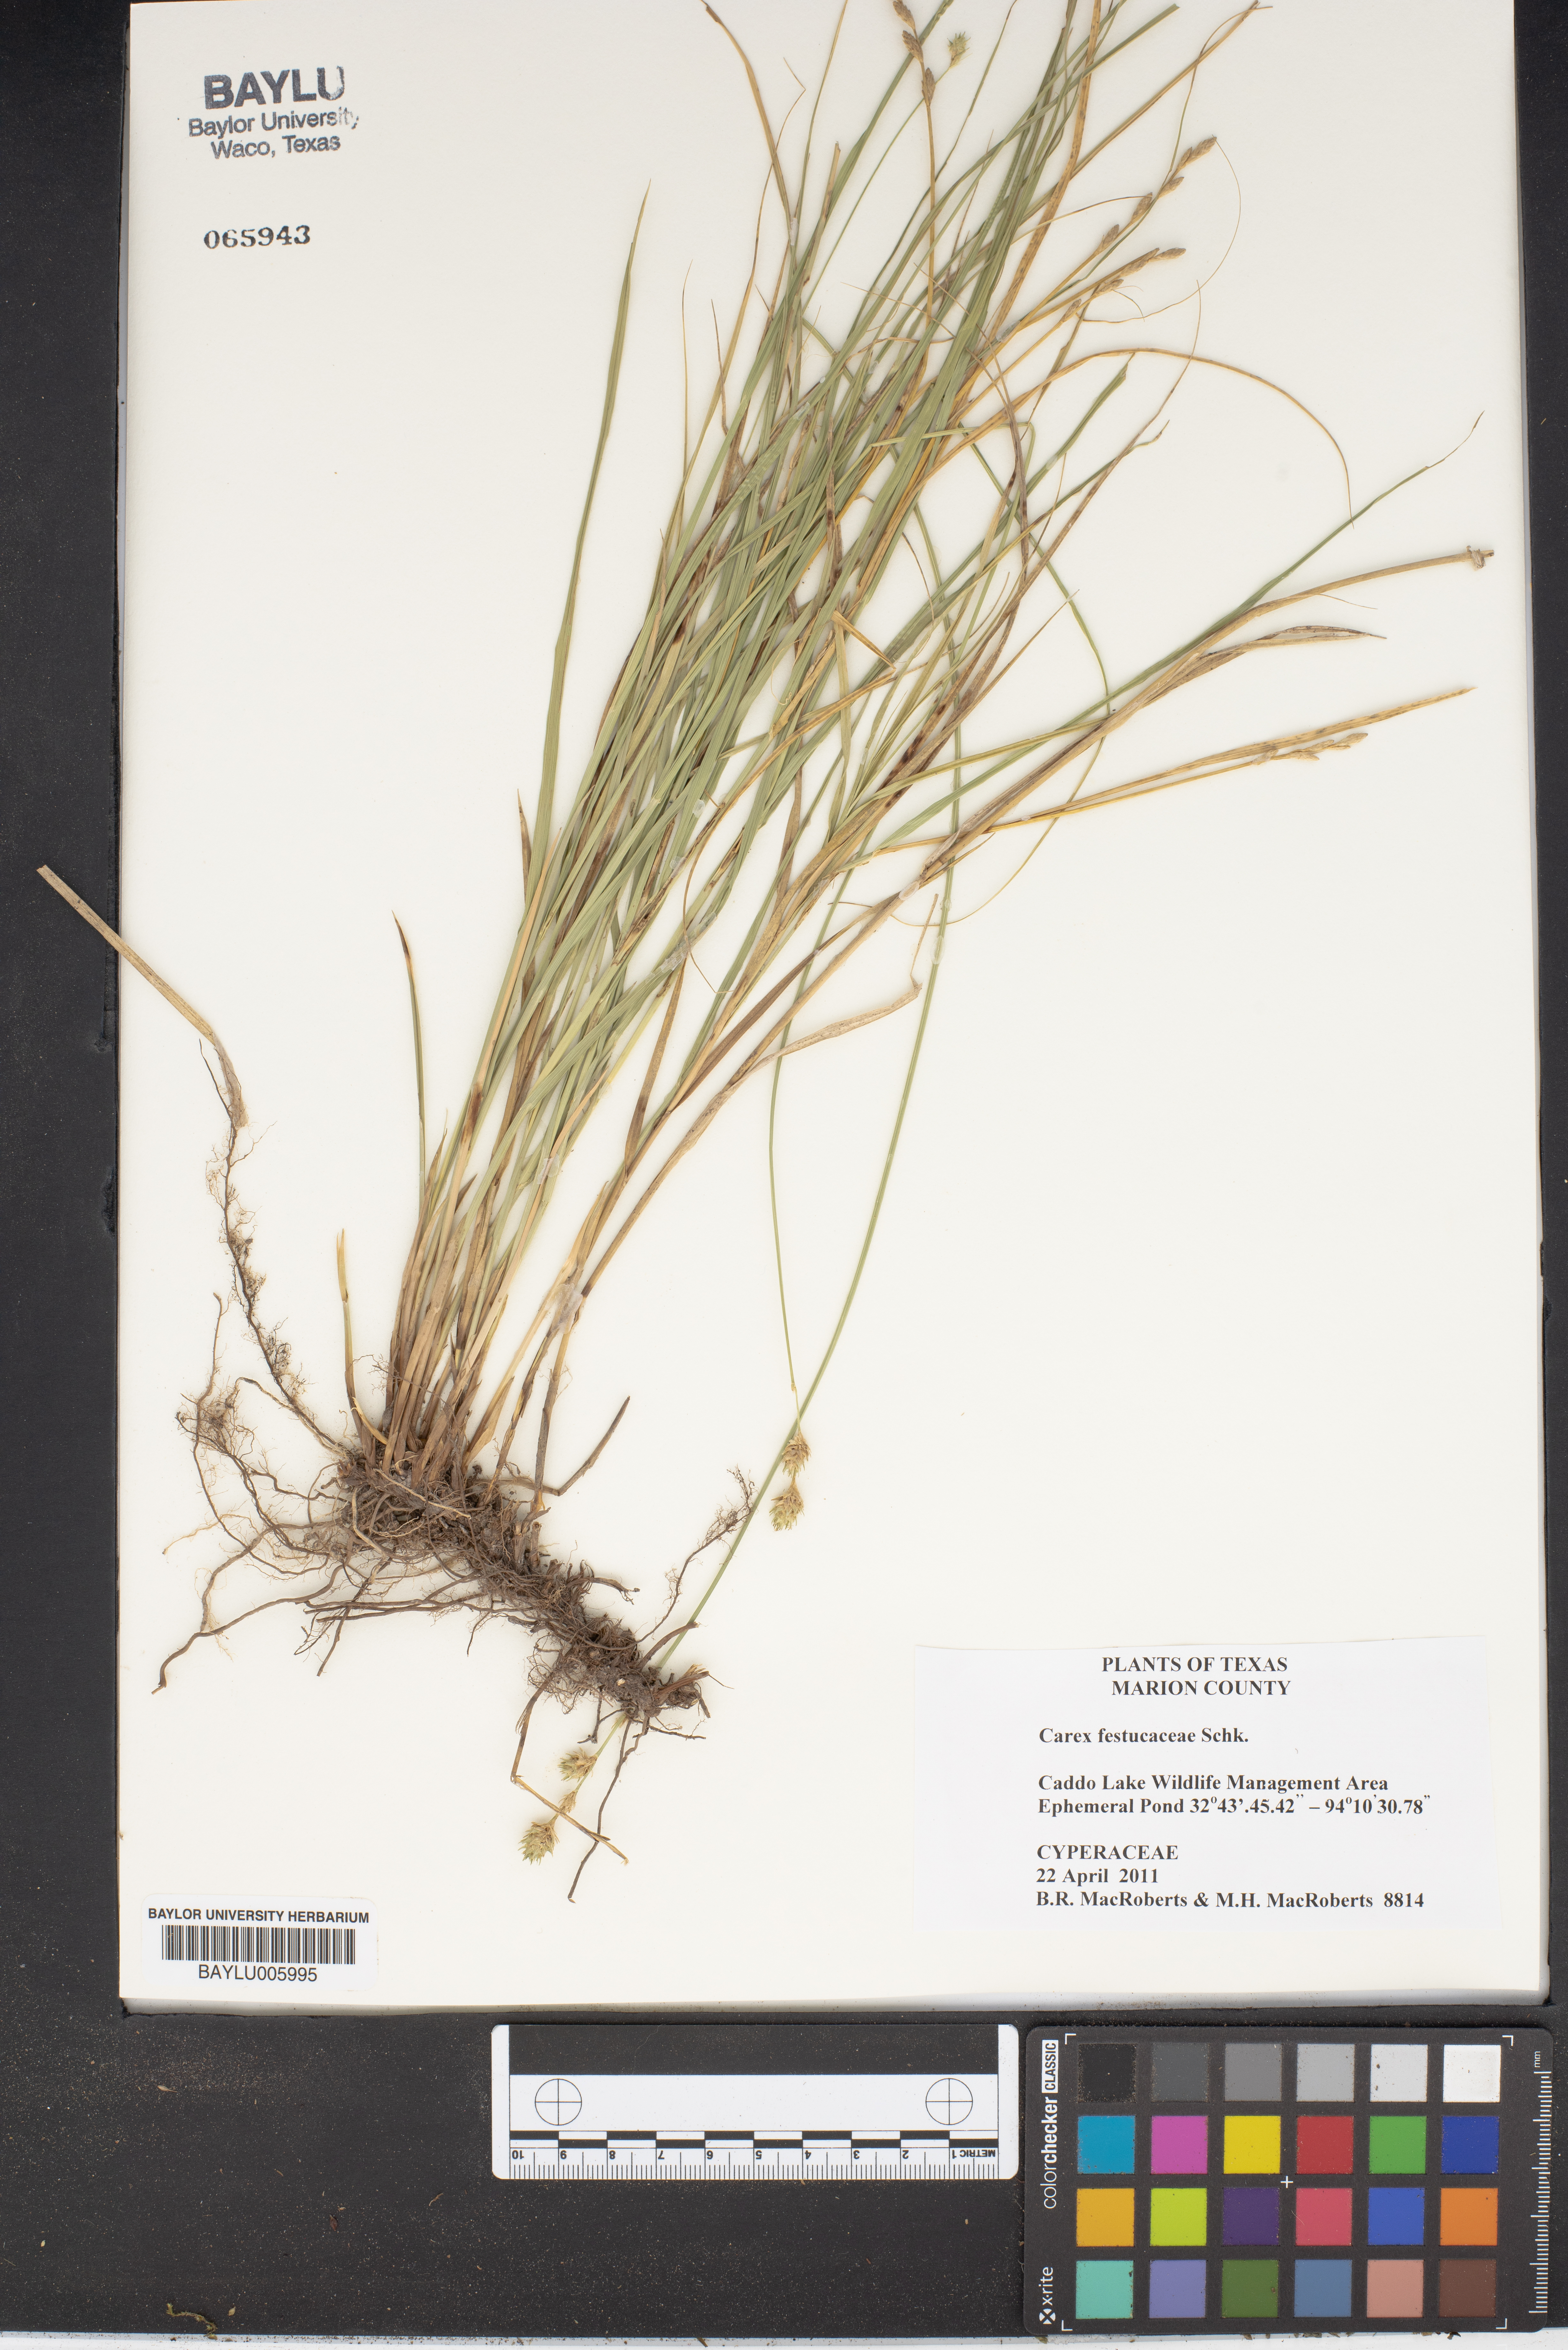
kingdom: Plantae
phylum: Tracheophyta
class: Liliopsida
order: Poales
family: Cyperaceae
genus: Carex
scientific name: Carex festucacea
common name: Fescue oval sedge
